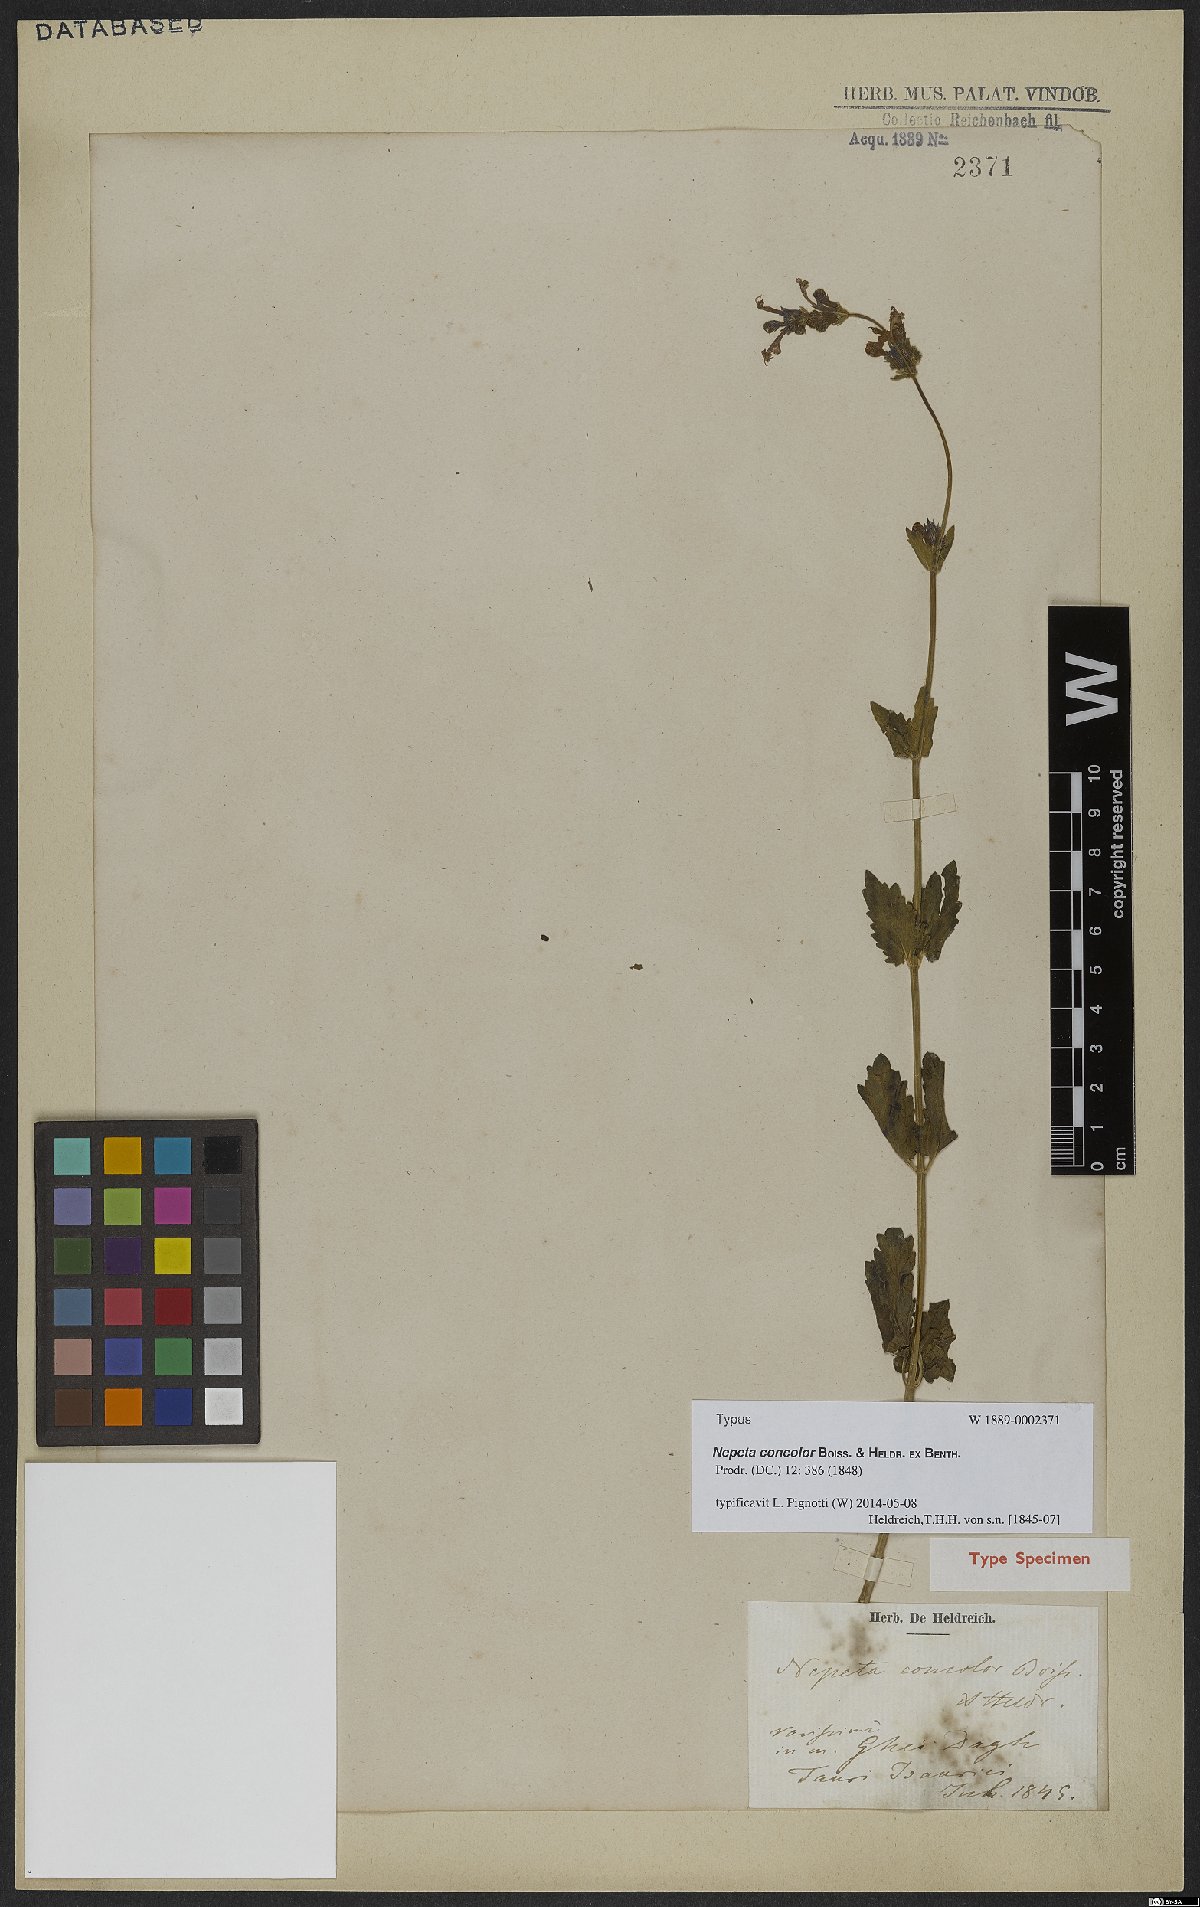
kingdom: Plantae
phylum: Tracheophyta
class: Magnoliopsida
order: Lamiales
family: Lamiaceae
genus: Nepeta
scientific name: Nepeta concolor
